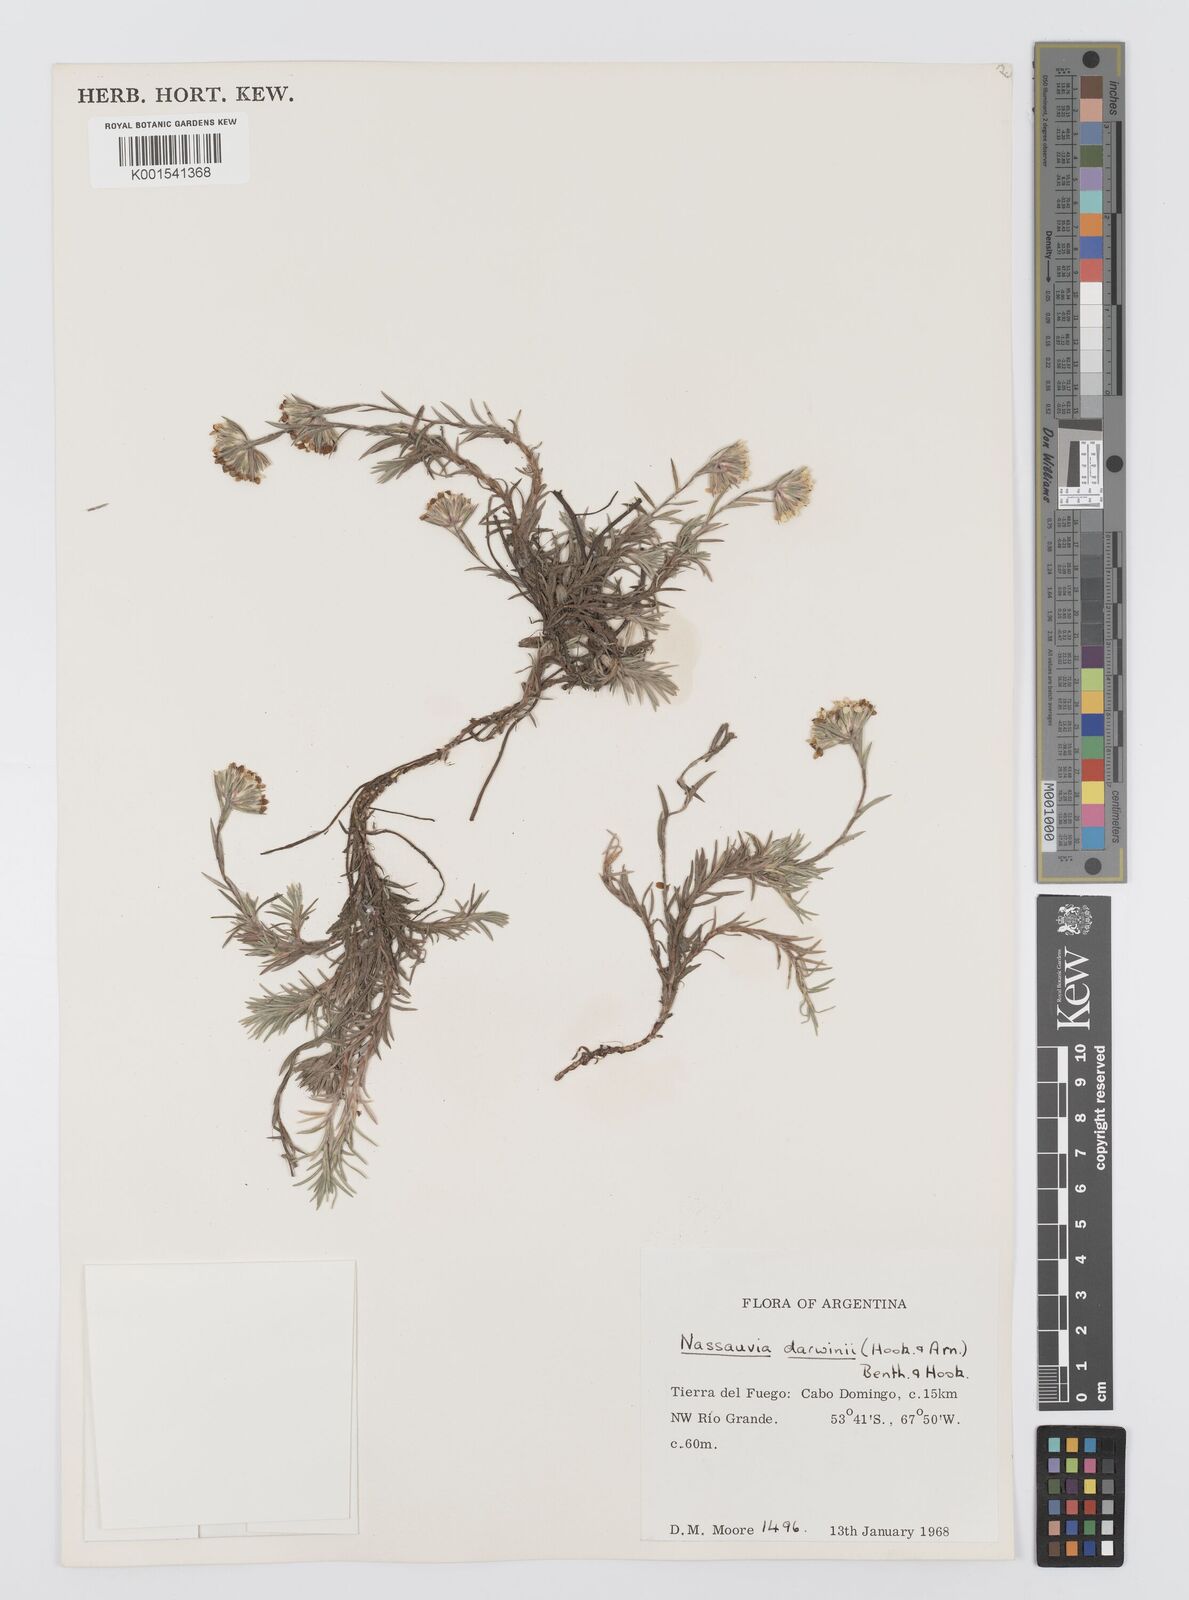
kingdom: Plantae
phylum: Tracheophyta
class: Magnoliopsida
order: Asterales
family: Asteraceae
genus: Nassauvia
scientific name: Nassauvia darwinii
